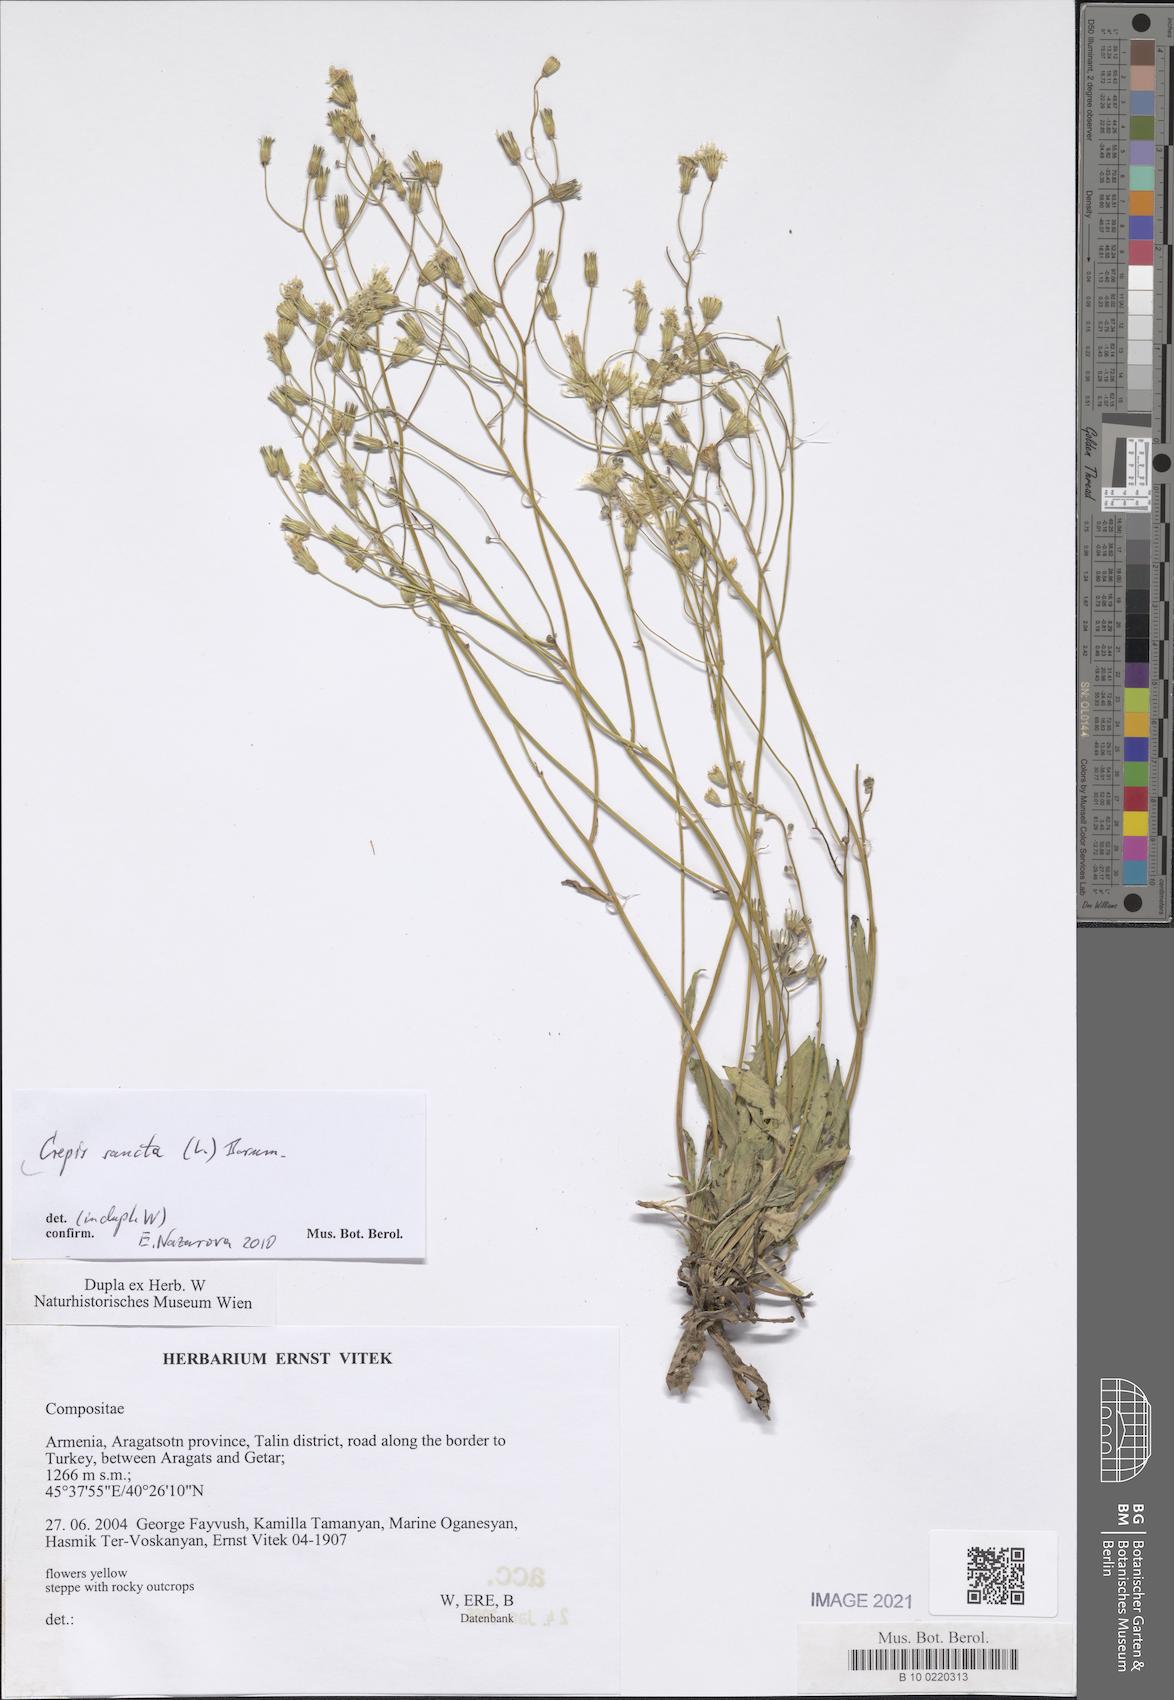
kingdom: Plantae
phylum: Tracheophyta
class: Magnoliopsida
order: Asterales
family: Asteraceae
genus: Crepis
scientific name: Crepis sancta
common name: Hawk's-beard
